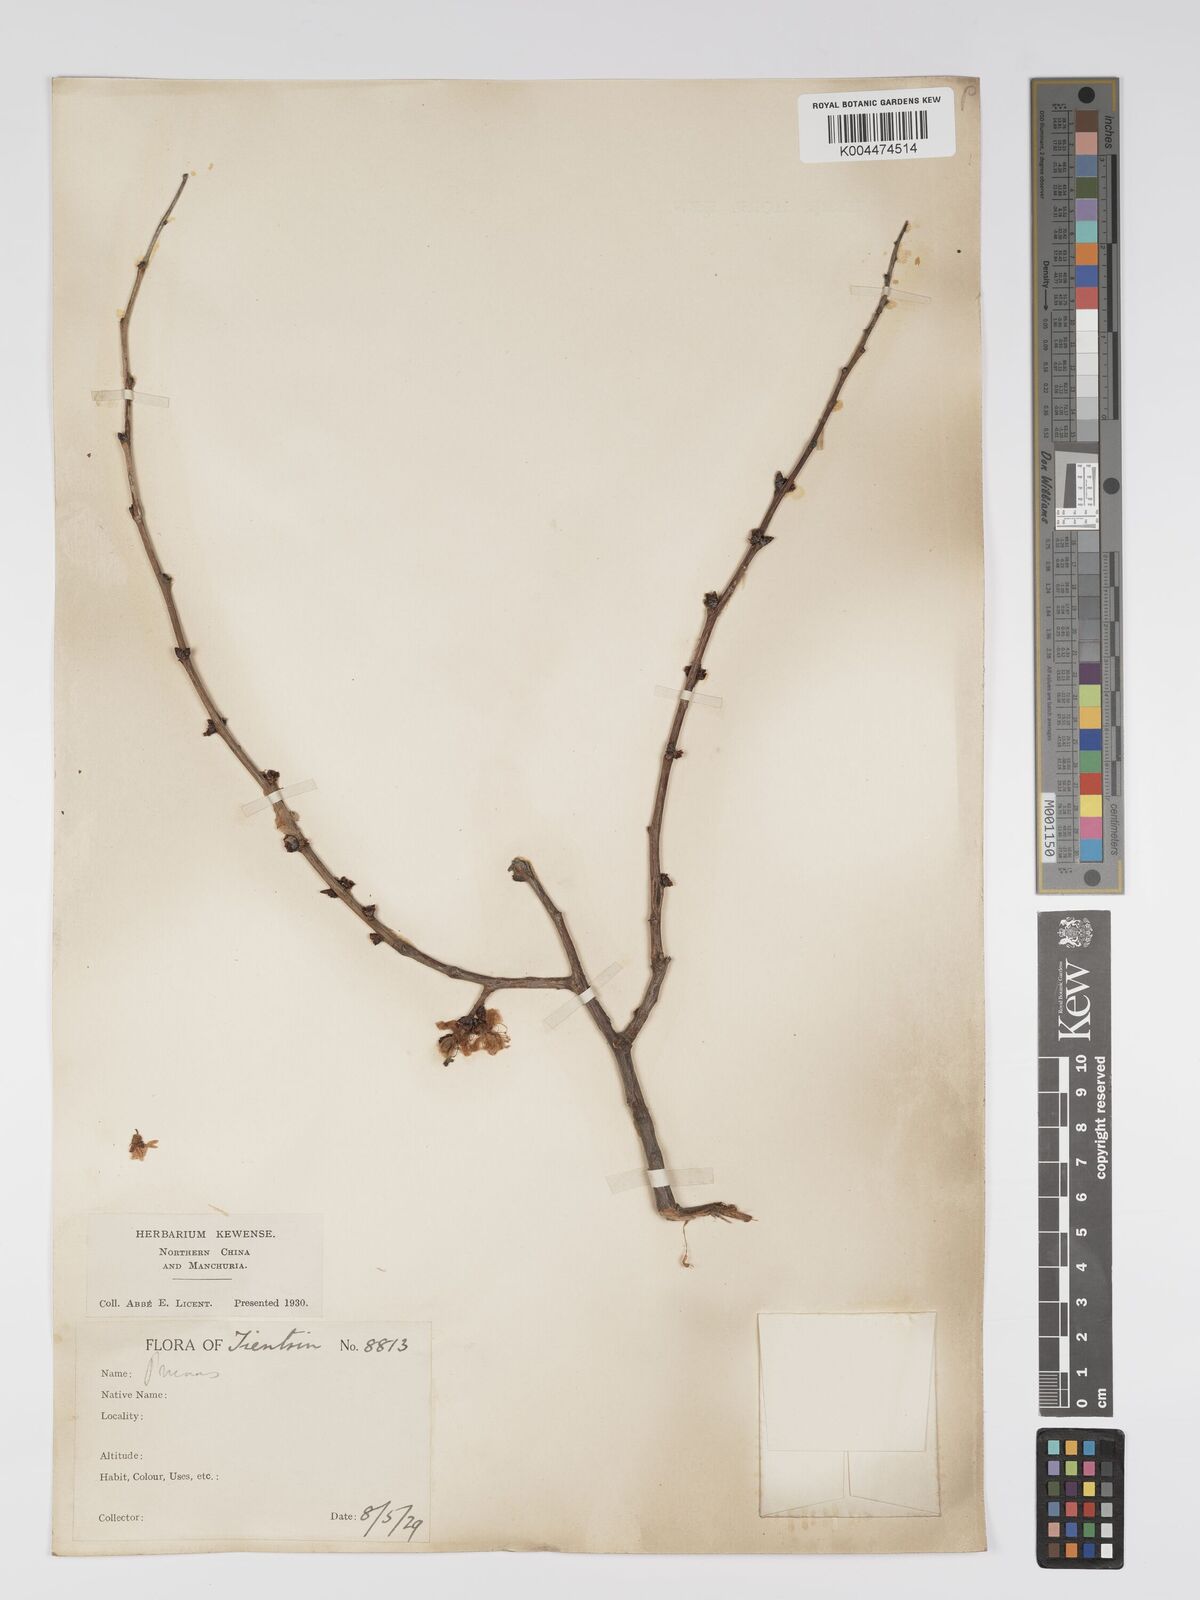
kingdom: Plantae
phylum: Tracheophyta
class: Magnoliopsida
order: Rosales
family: Rosaceae
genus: Prunus
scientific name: Prunus
